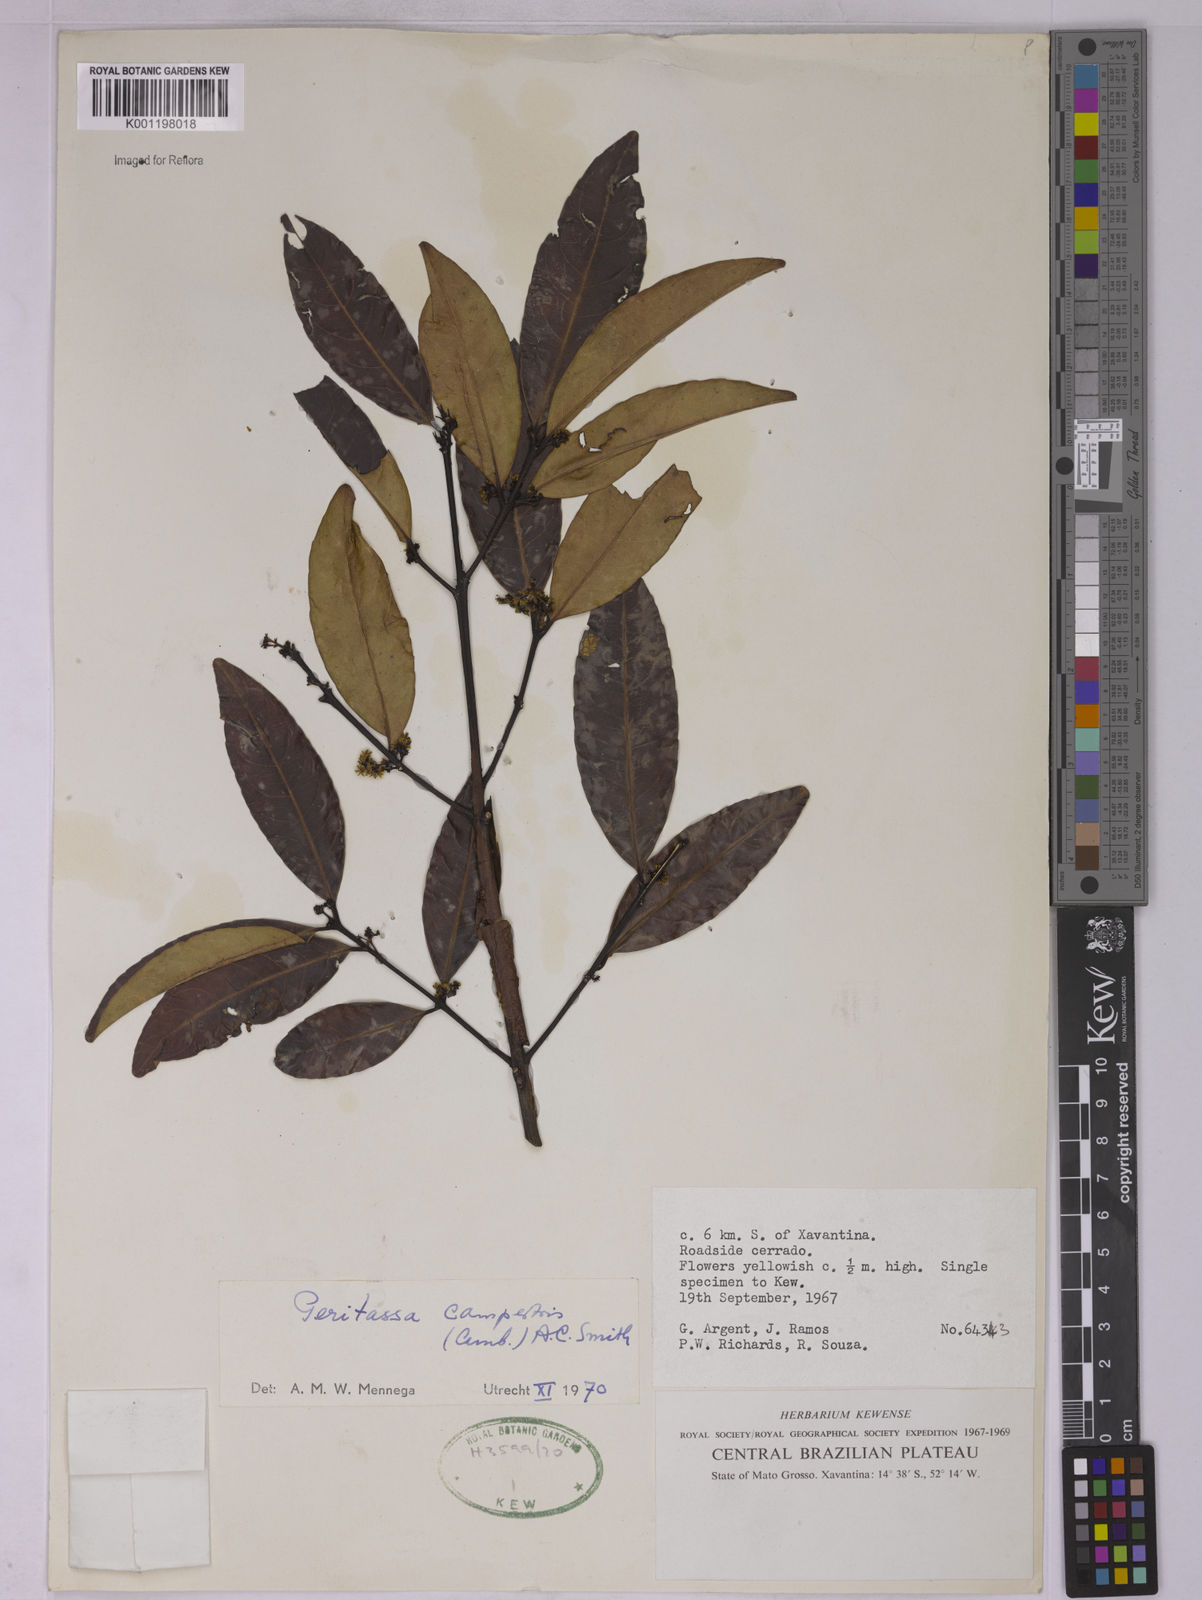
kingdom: Plantae
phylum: Tracheophyta
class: Magnoliopsida
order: Celastrales
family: Celastraceae
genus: Peritassa
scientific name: Peritassa campestris
